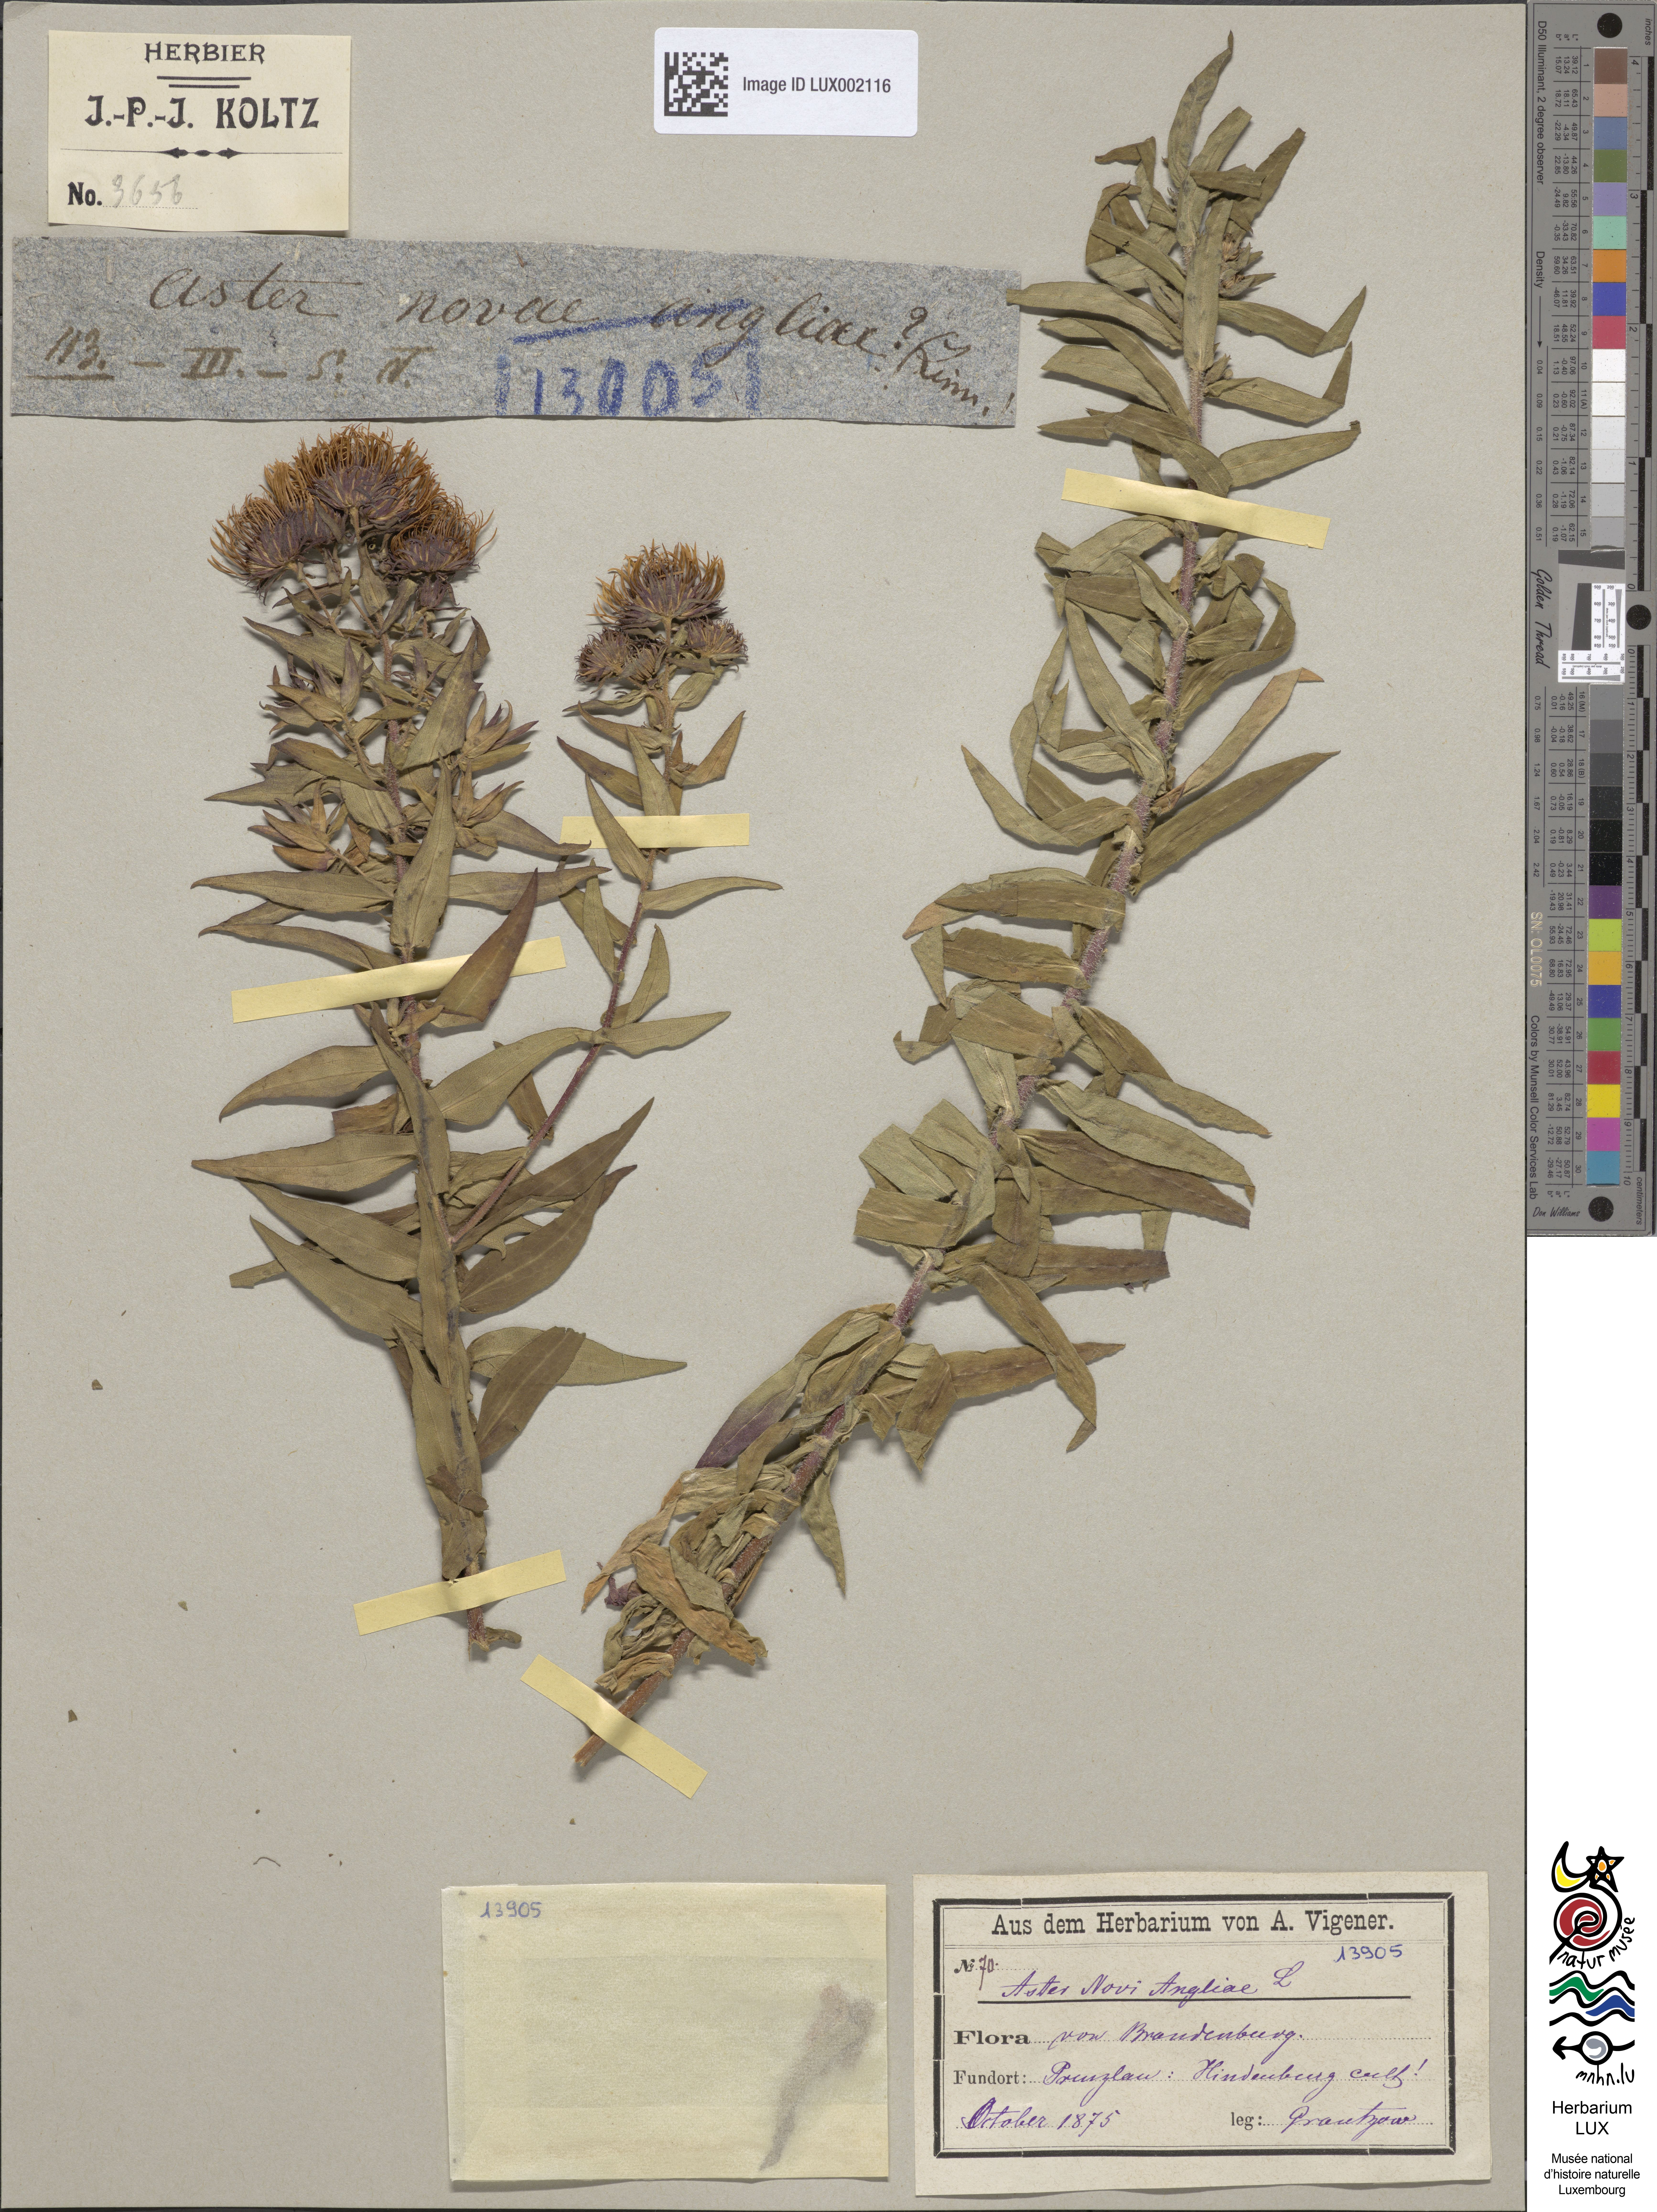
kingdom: Plantae
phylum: Tracheophyta
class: Magnoliopsida
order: Asterales
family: Asteraceae
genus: Symphyotrichum
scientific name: Symphyotrichum novae-angliae
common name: Michaelmas daisy
